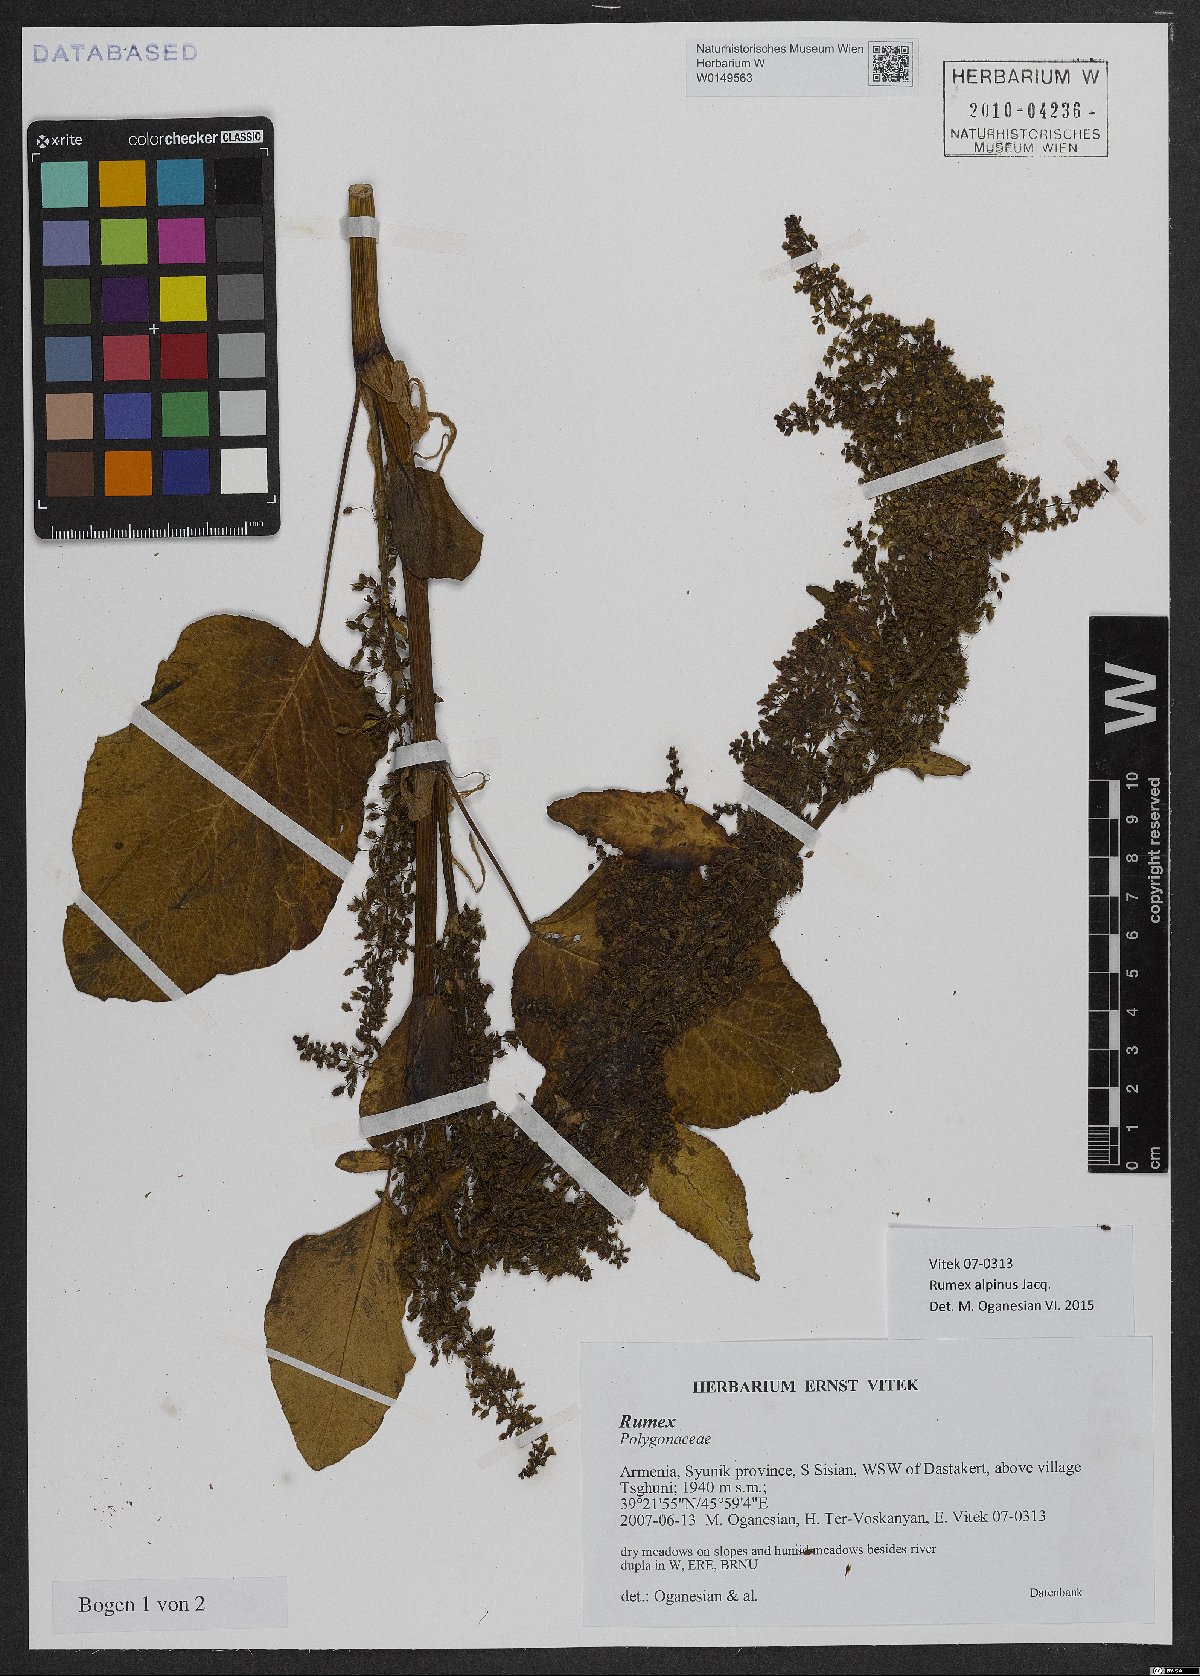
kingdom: Plantae
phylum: Tracheophyta
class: Magnoliopsida
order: Caryophyllales
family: Polygonaceae
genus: Rumex
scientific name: Rumex alpinus
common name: Alpine dock
